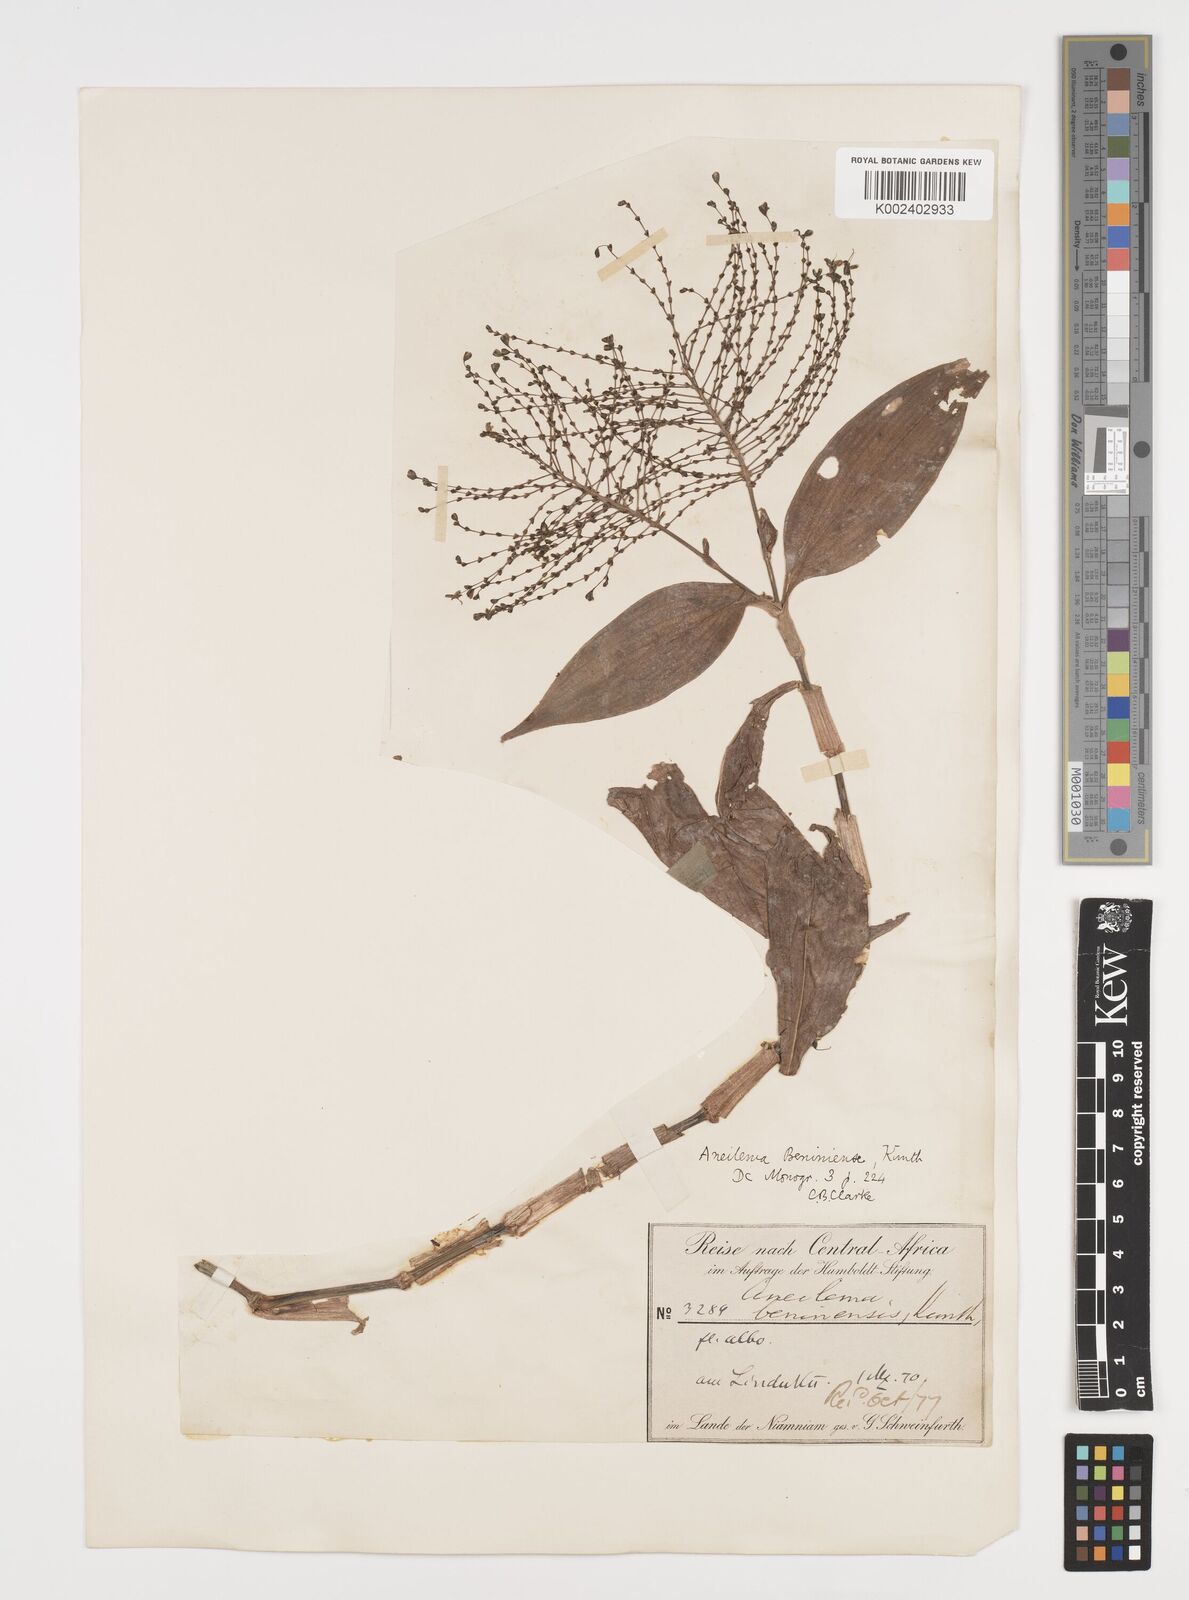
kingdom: Plantae
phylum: Tracheophyta
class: Liliopsida
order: Commelinales
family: Commelinaceae
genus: Aneilema
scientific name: Aneilema beniniense
